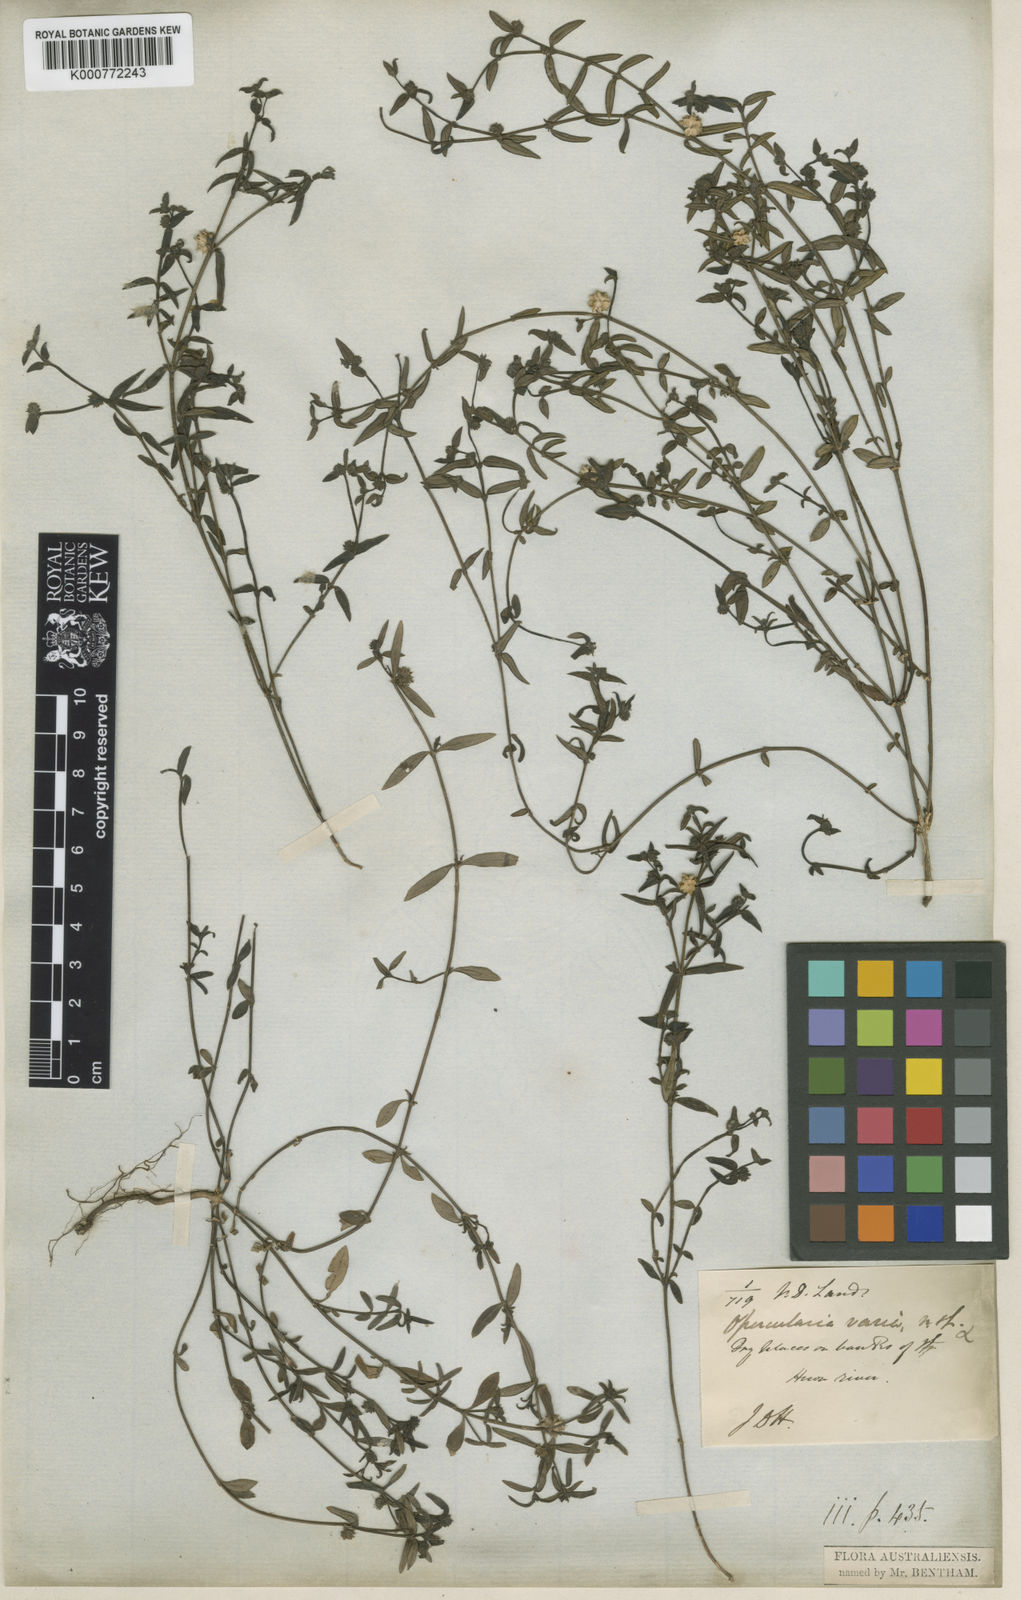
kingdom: Plantae
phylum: Tracheophyta
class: Magnoliopsida
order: Gentianales
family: Rubiaceae
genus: Opercularia
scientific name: Opercularia varia
